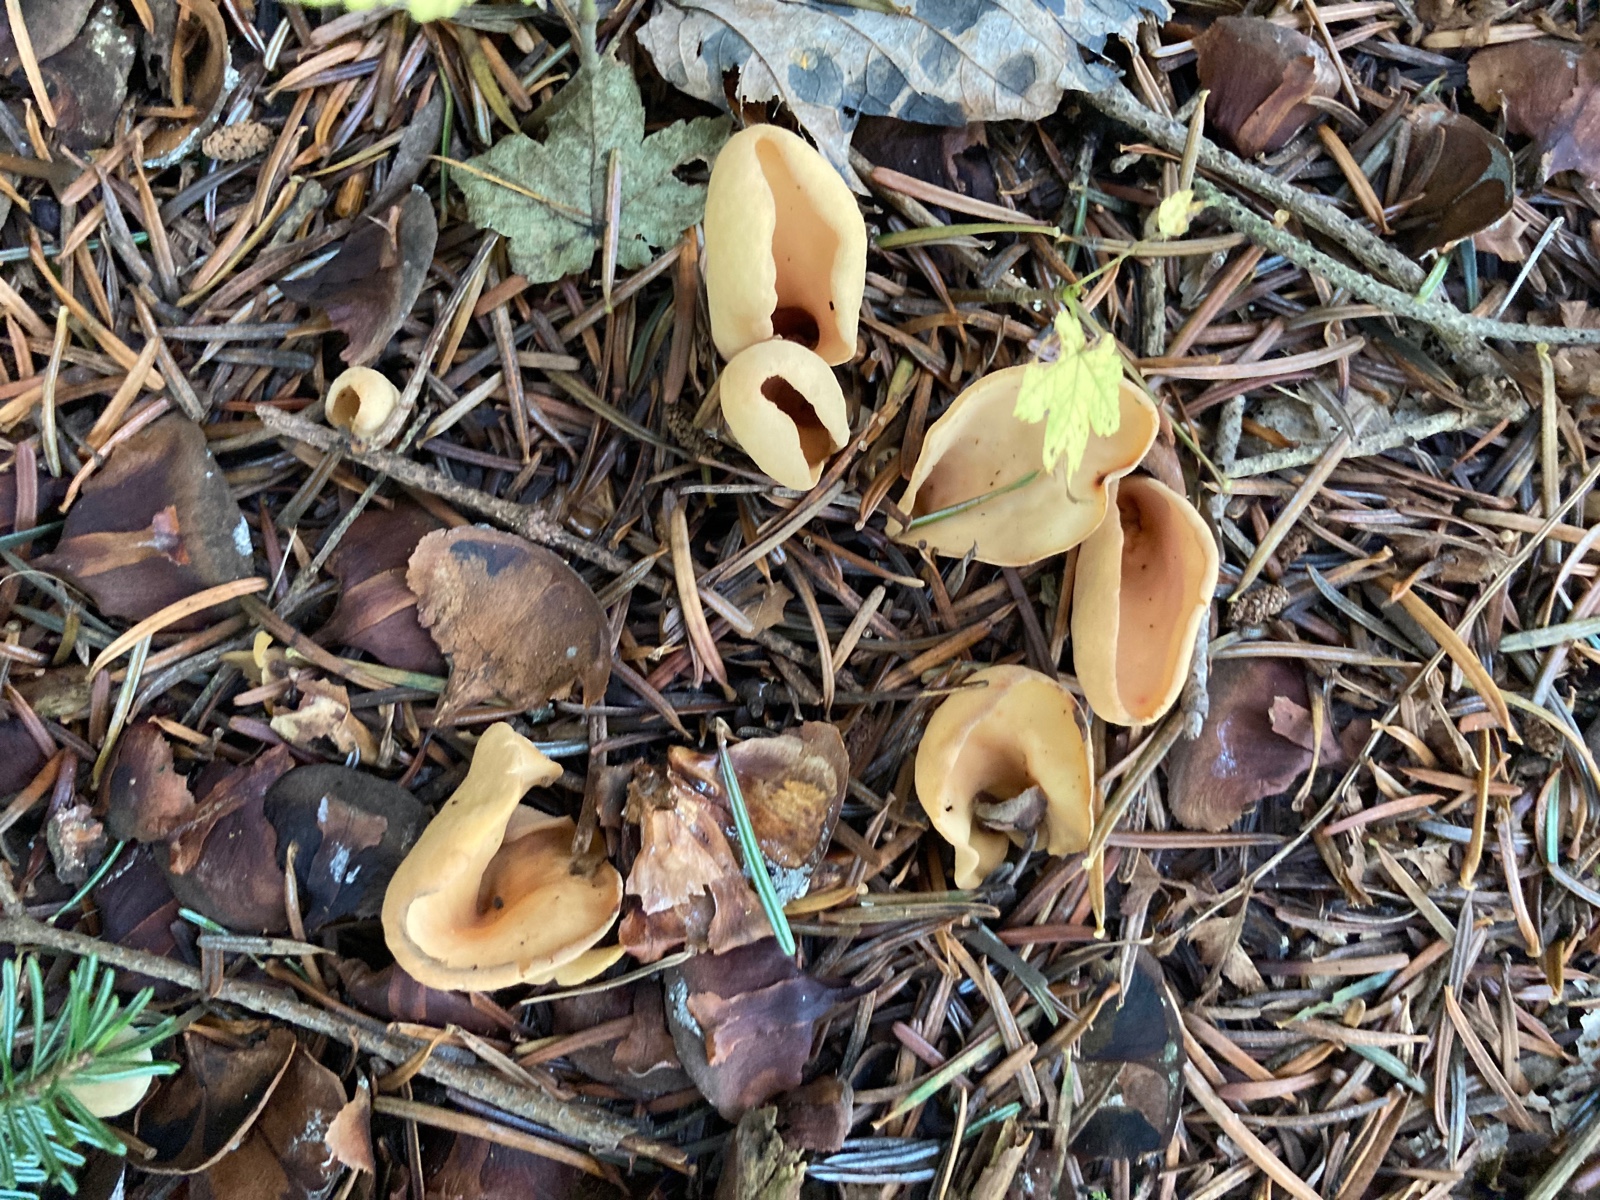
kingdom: Fungi
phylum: Ascomycota
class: Pezizomycetes
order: Pezizales
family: Otideaceae
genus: Otidea
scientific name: Otidea
